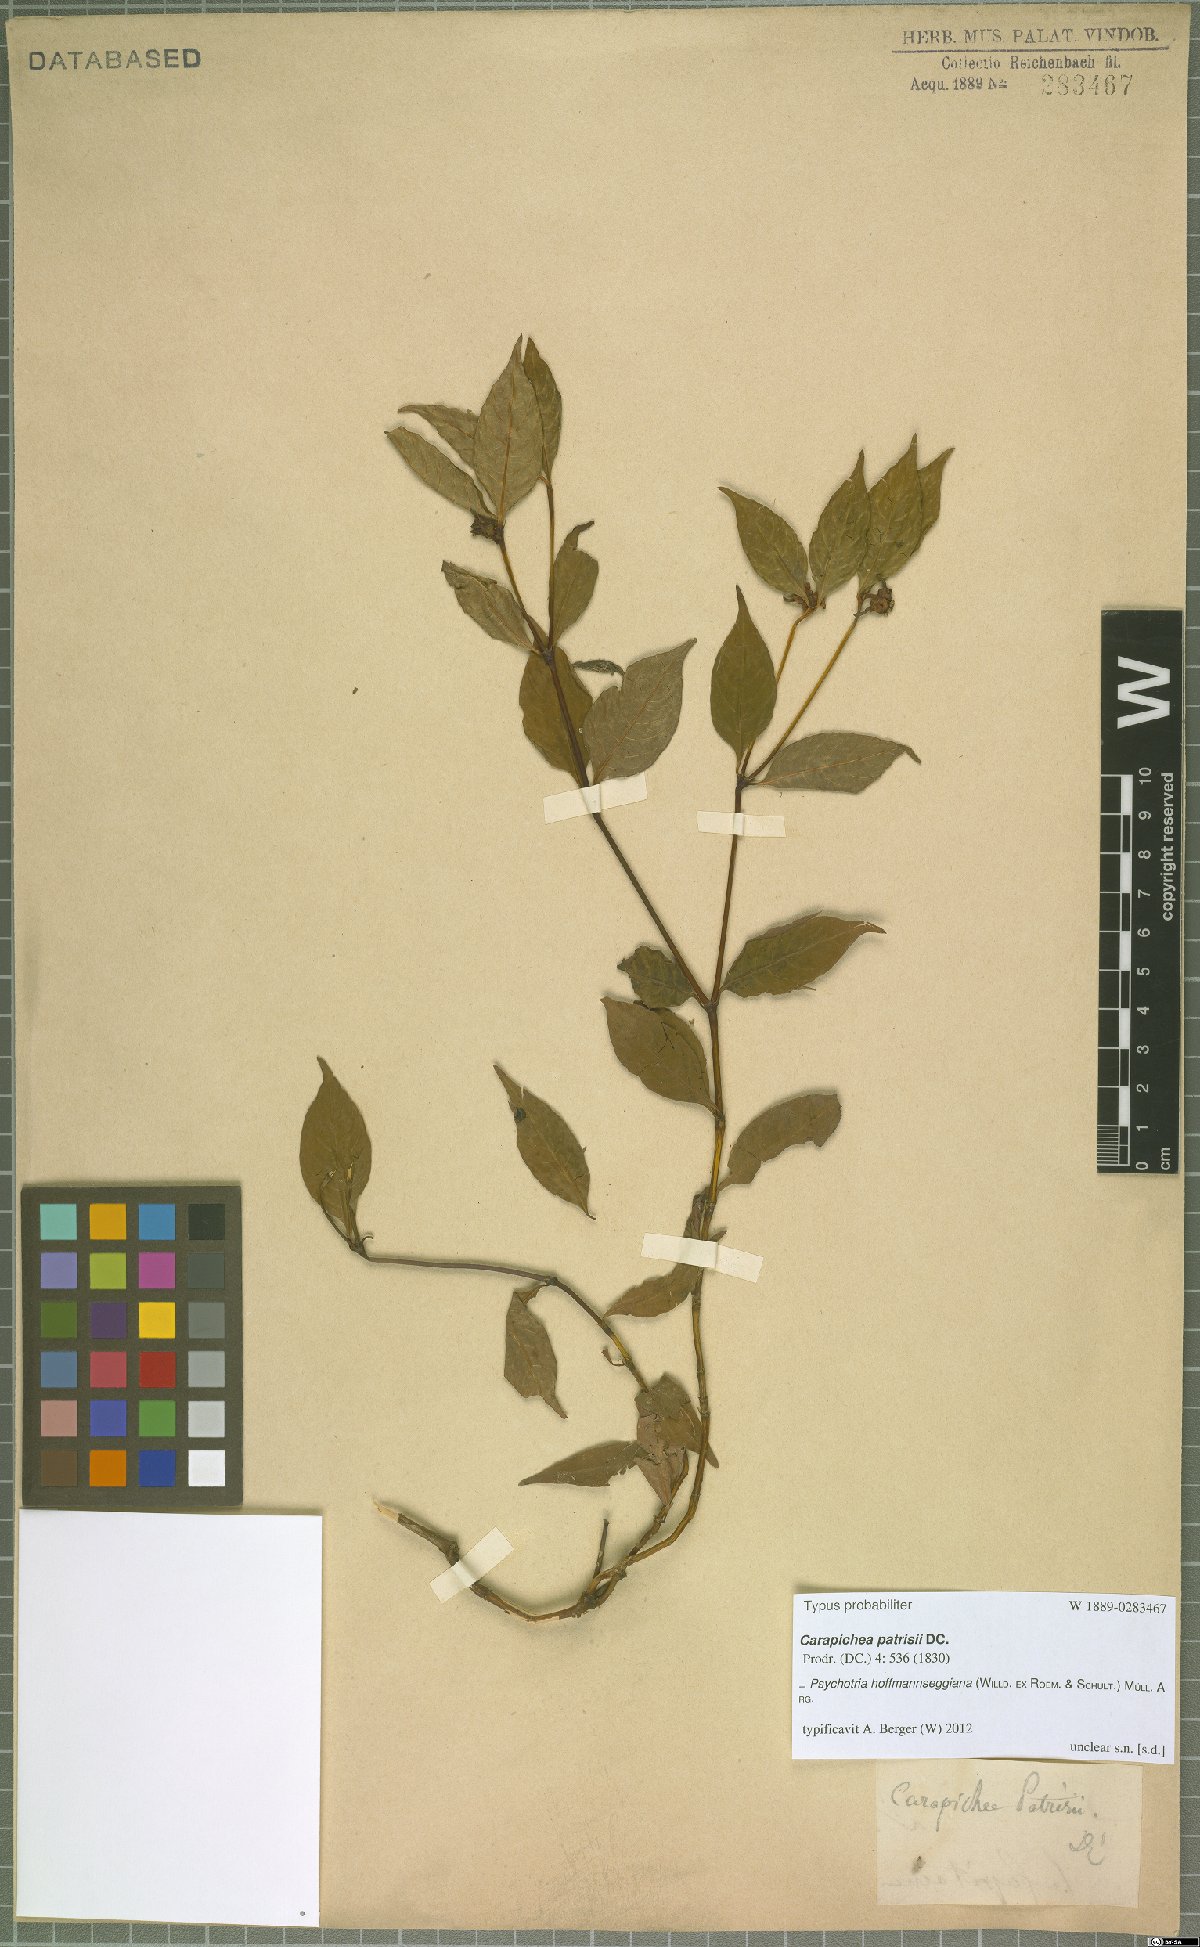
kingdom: Plantae
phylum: Tracheophyta
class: Magnoliopsida
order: Gentianales
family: Rubiaceae
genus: Palicourea
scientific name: Palicourea hoffmannseggiana
